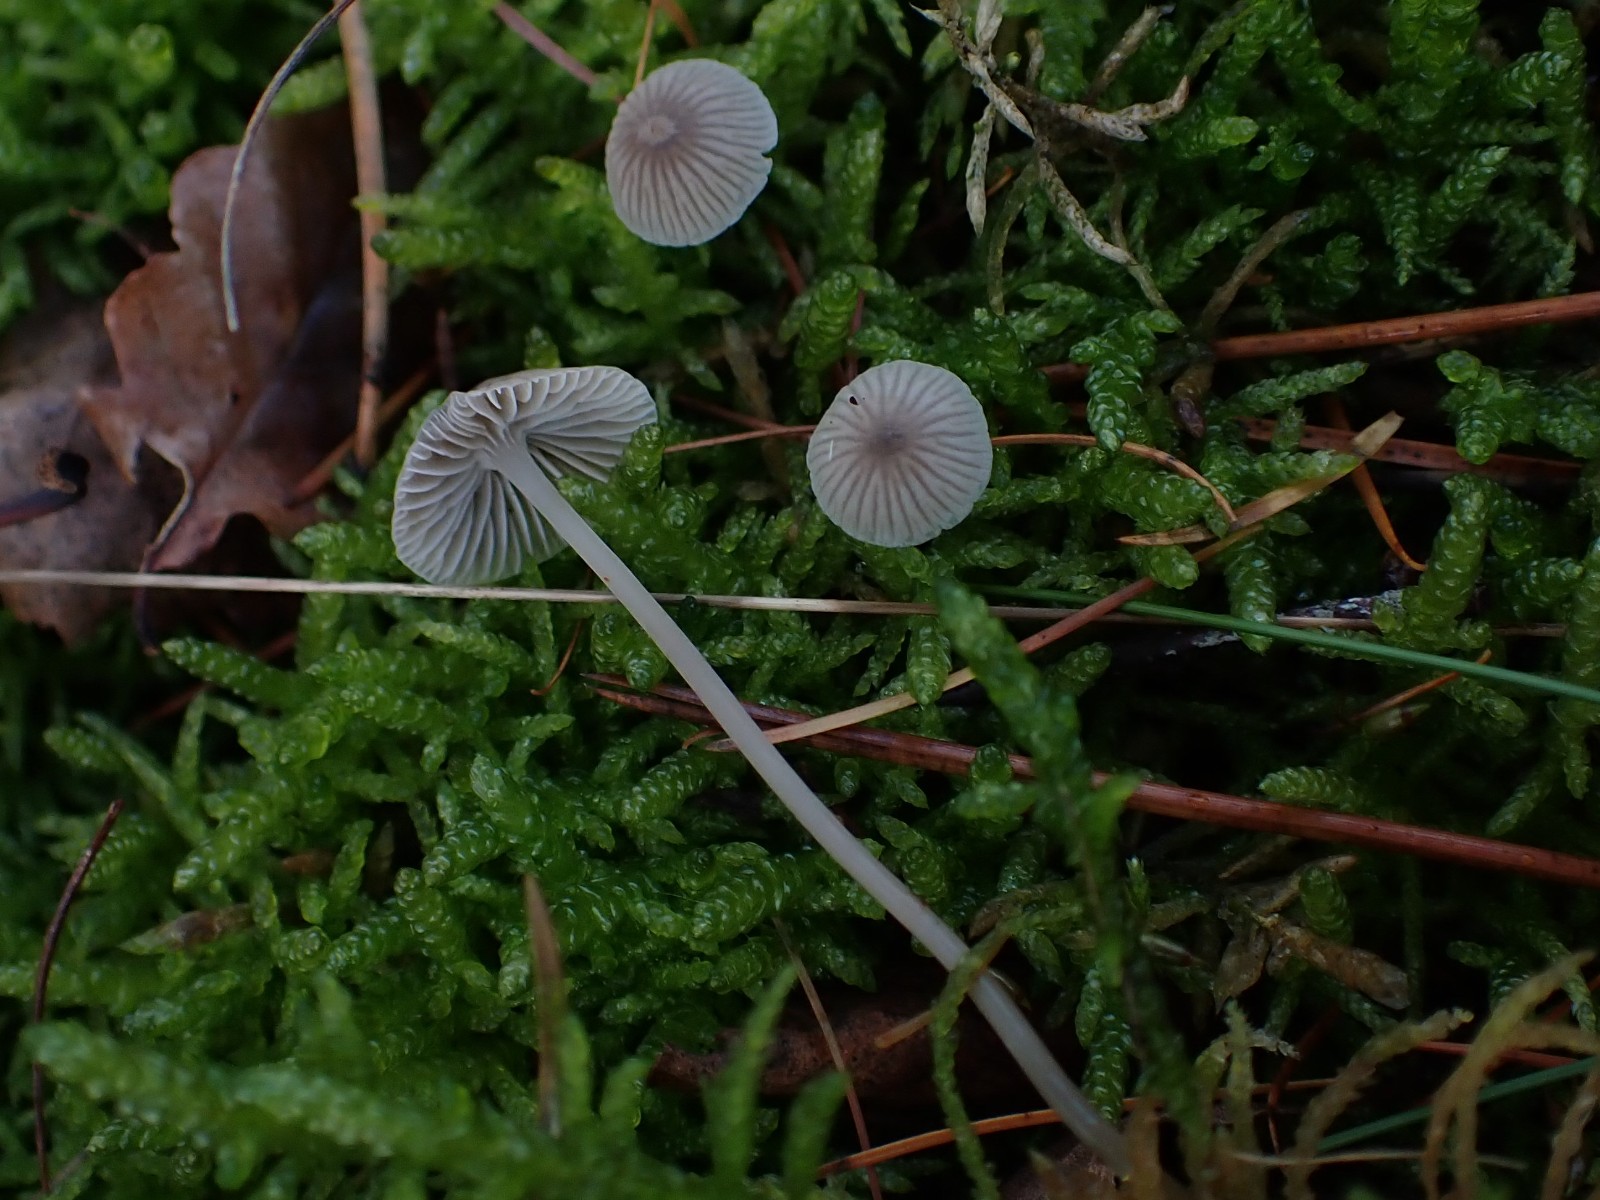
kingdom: Fungi
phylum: Basidiomycota
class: Agaricomycetes
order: Agaricales
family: Mycenaceae
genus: Mycena
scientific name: Mycena cinerella
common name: mel-huesvamp
